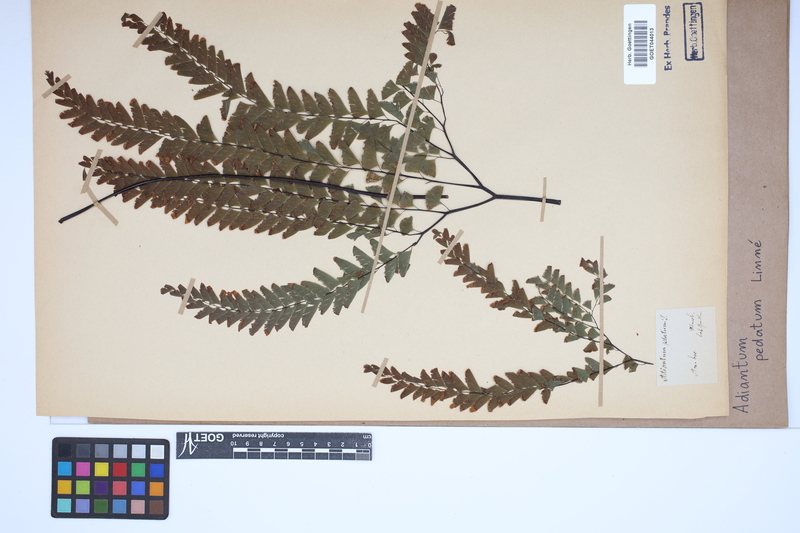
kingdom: Plantae
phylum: Tracheophyta
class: Polypodiopsida
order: Polypodiales
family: Pteridaceae
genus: Adiantum
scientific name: Adiantum pedatum
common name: Five-finger fern
